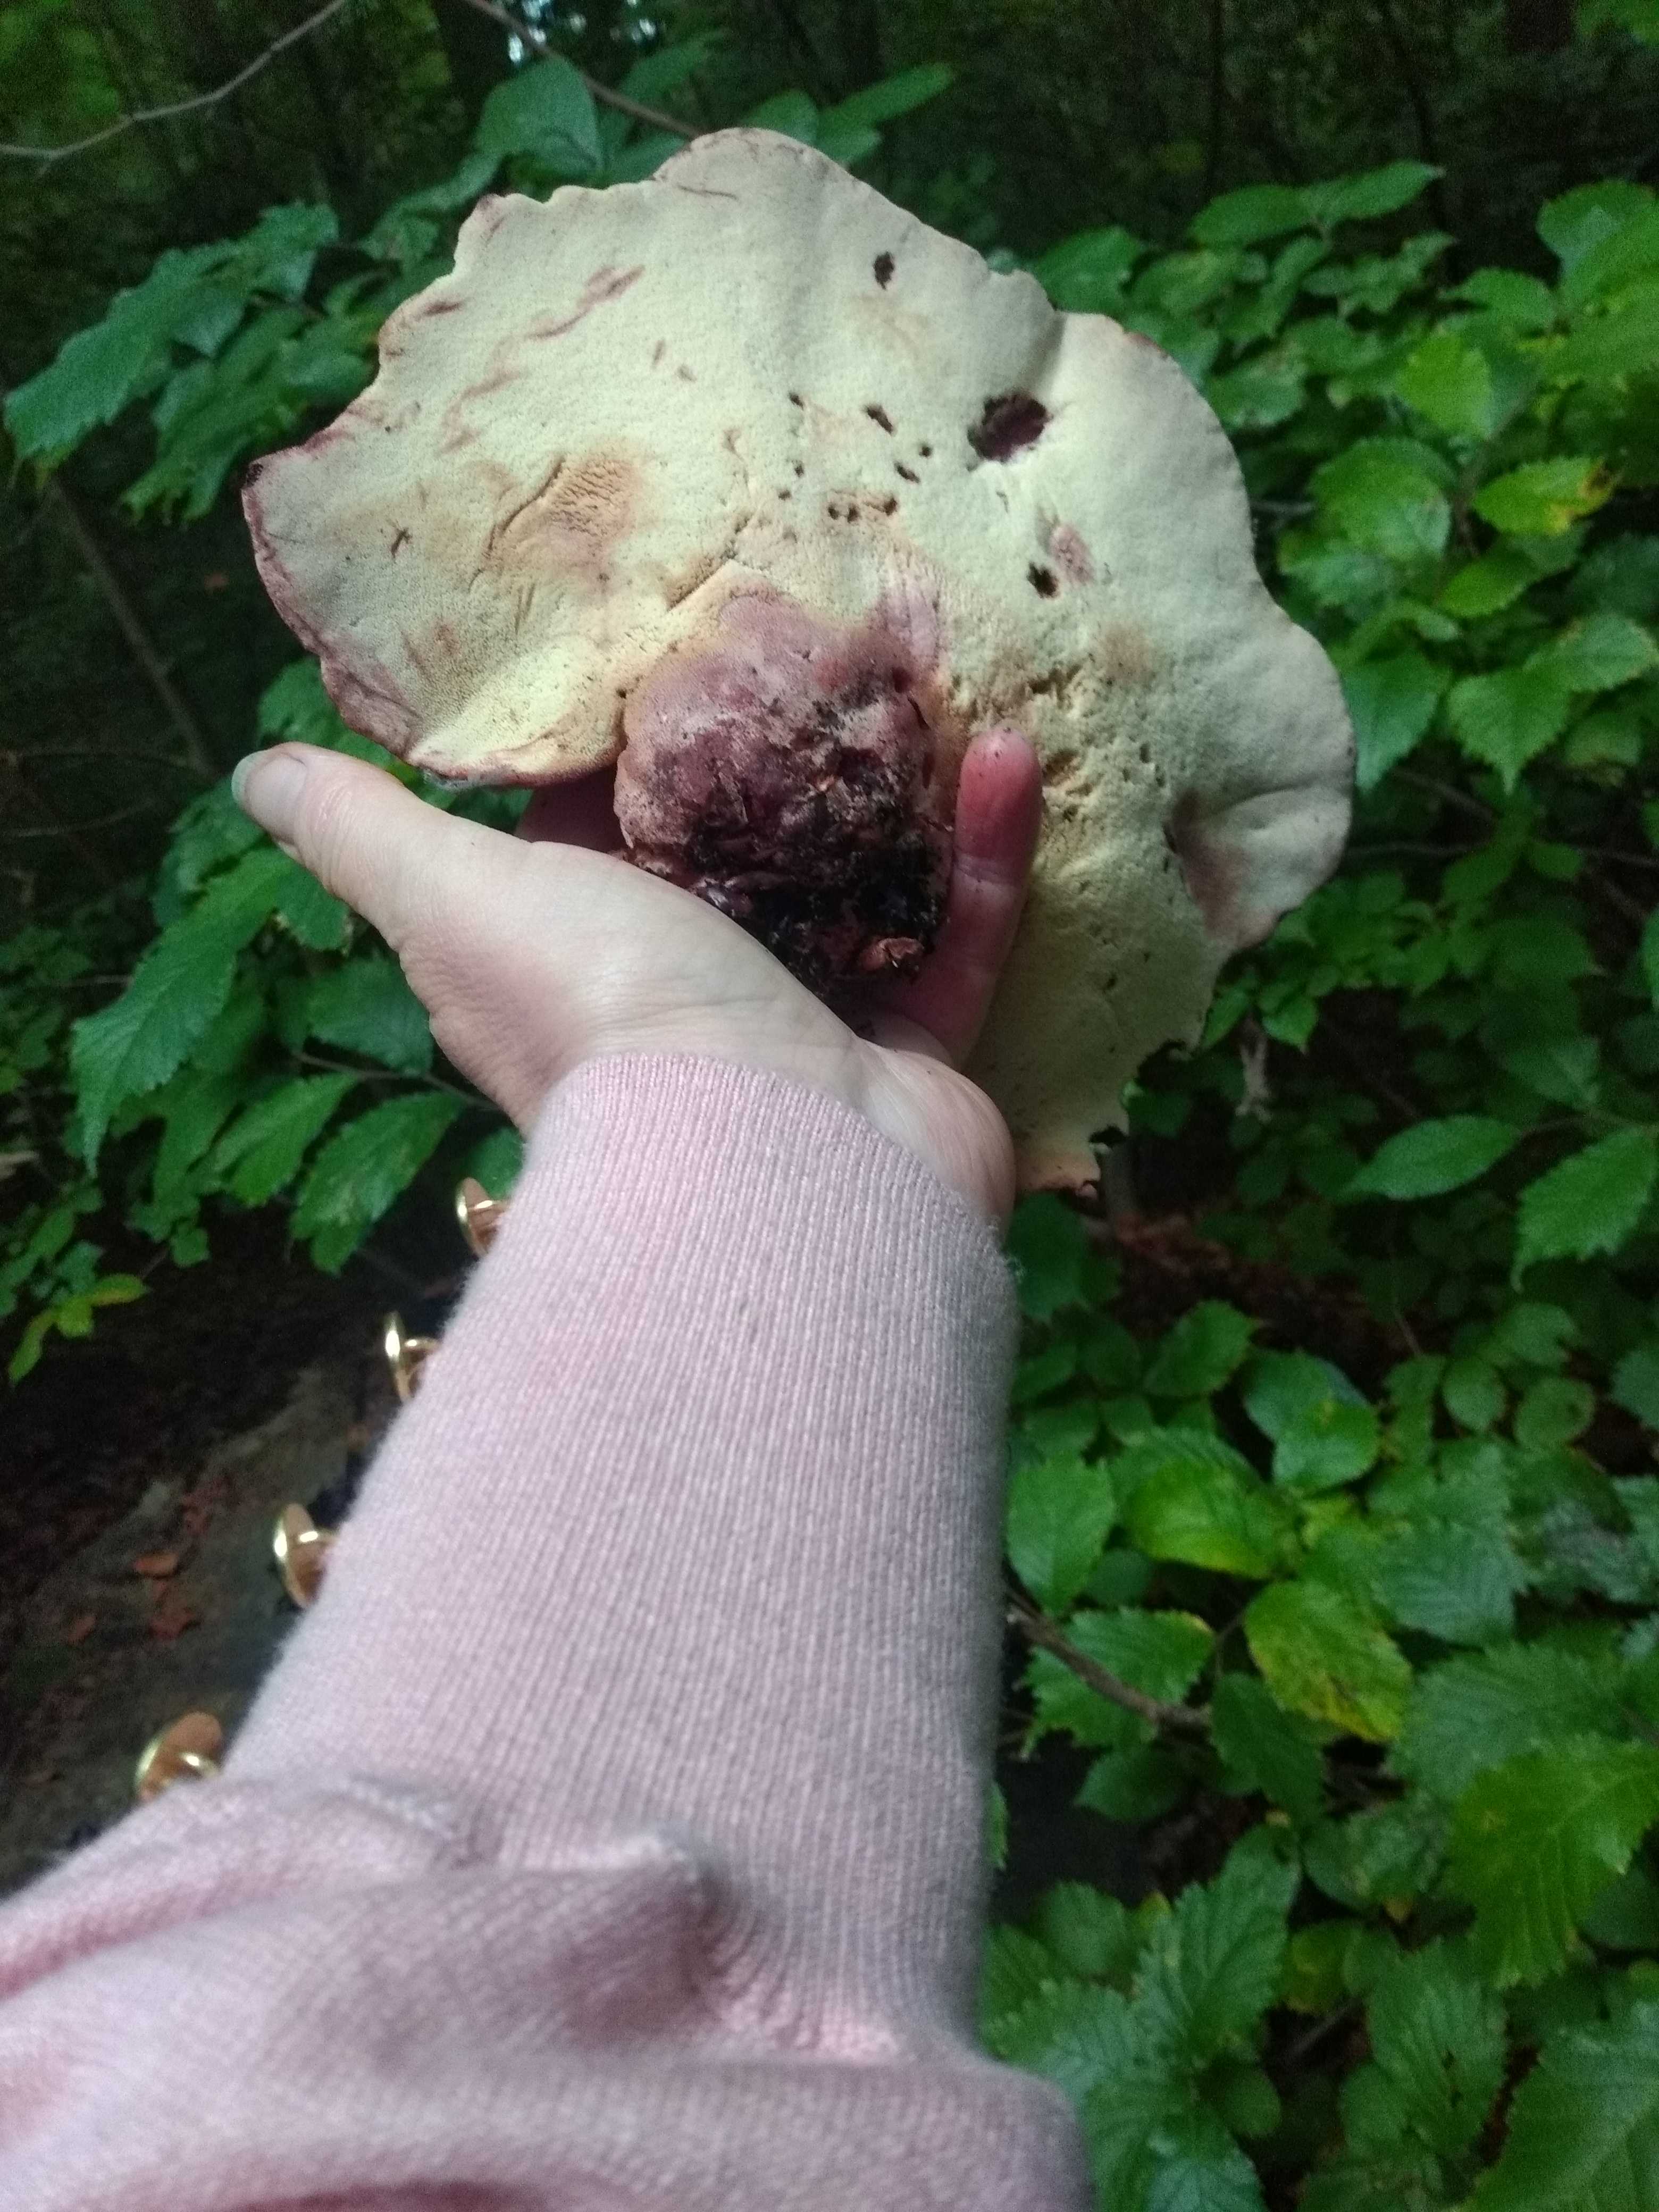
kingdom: Fungi
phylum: Basidiomycota
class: Agaricomycetes
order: Agaricales
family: Fistulinaceae
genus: Fistulina
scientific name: Fistulina hepatica
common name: oksetunge
